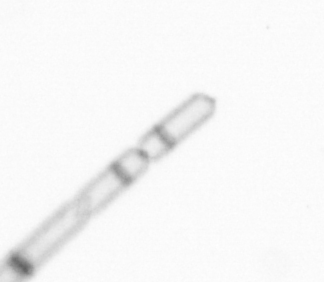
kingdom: Chromista
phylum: Ochrophyta
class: Bacillariophyceae
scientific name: Bacillariophyceae
